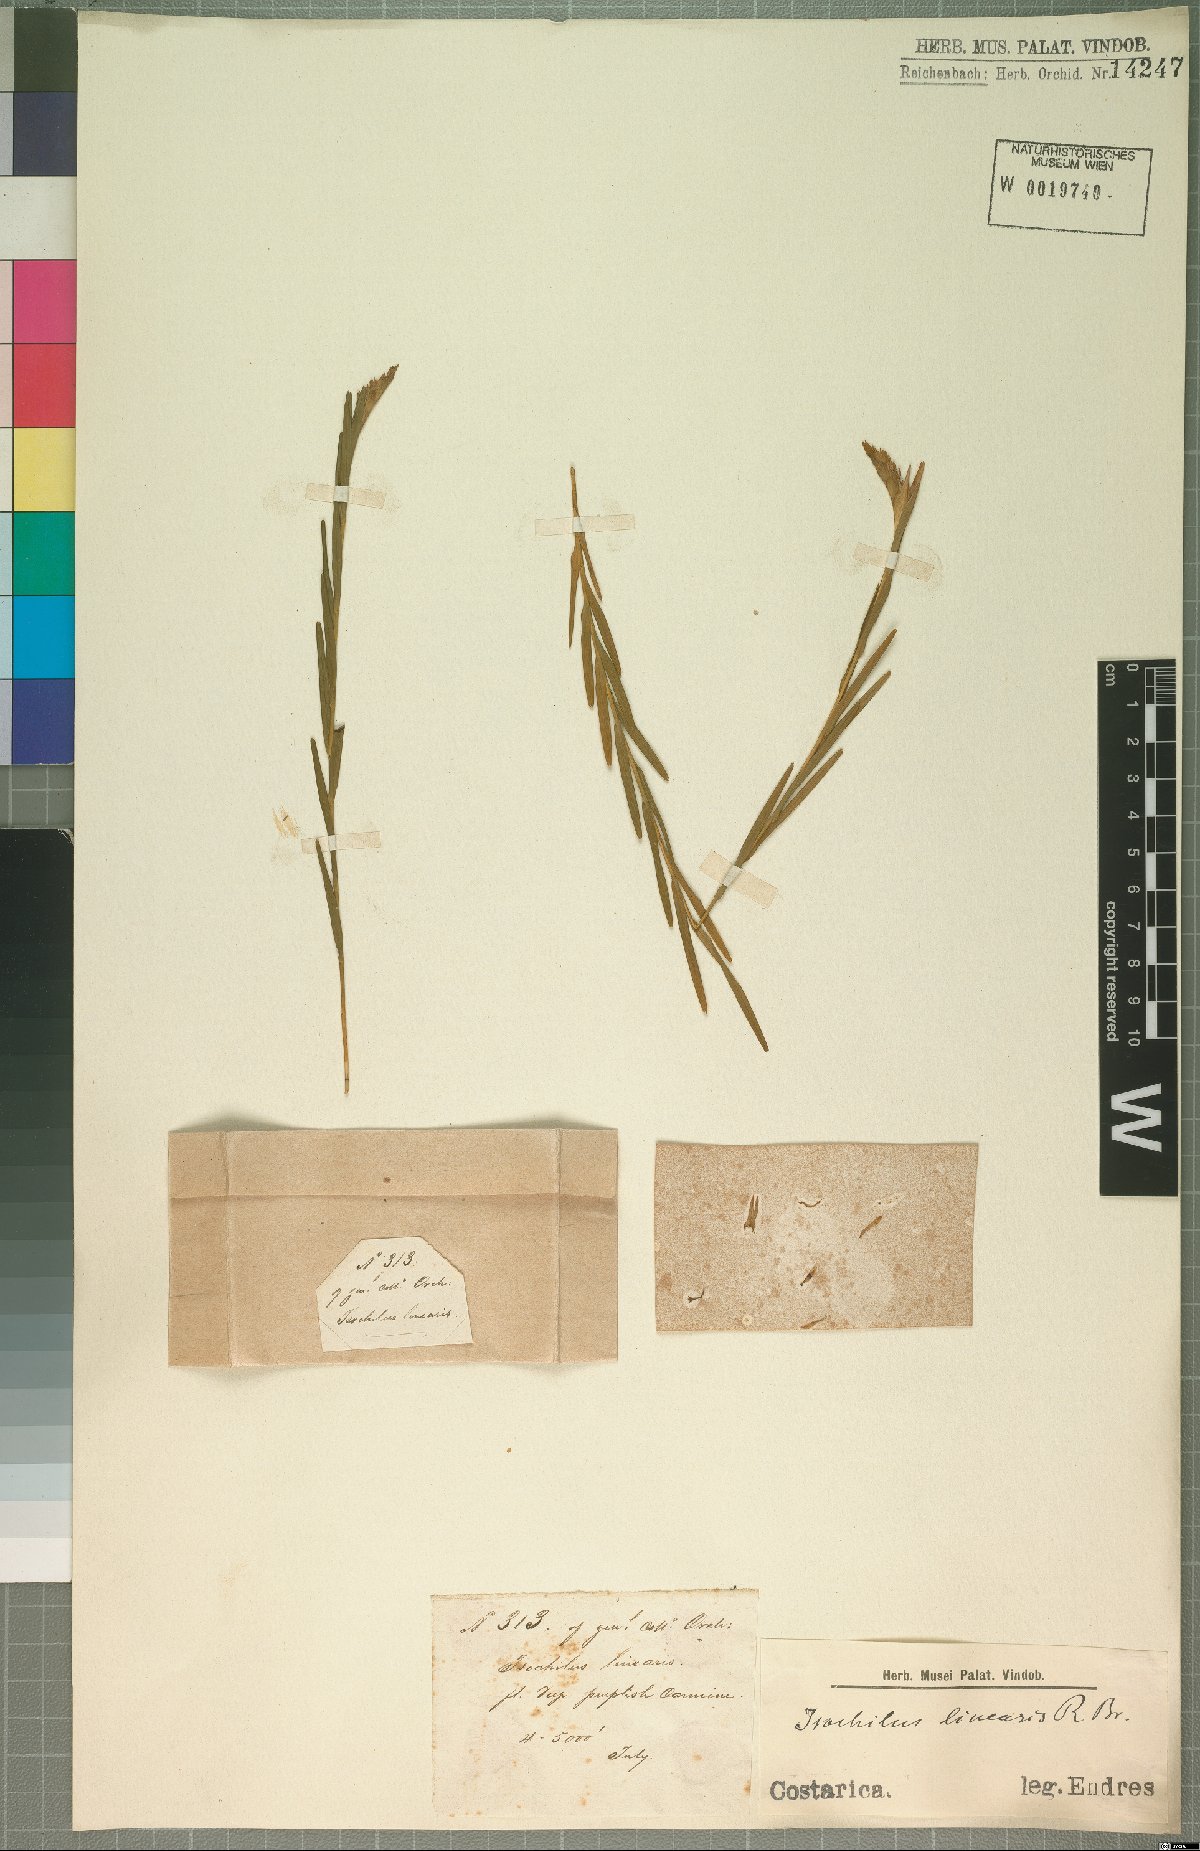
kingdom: Plantae
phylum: Tracheophyta
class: Liliopsida
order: Asparagales
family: Orchidaceae
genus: Isochilus
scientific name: Isochilus linearis
